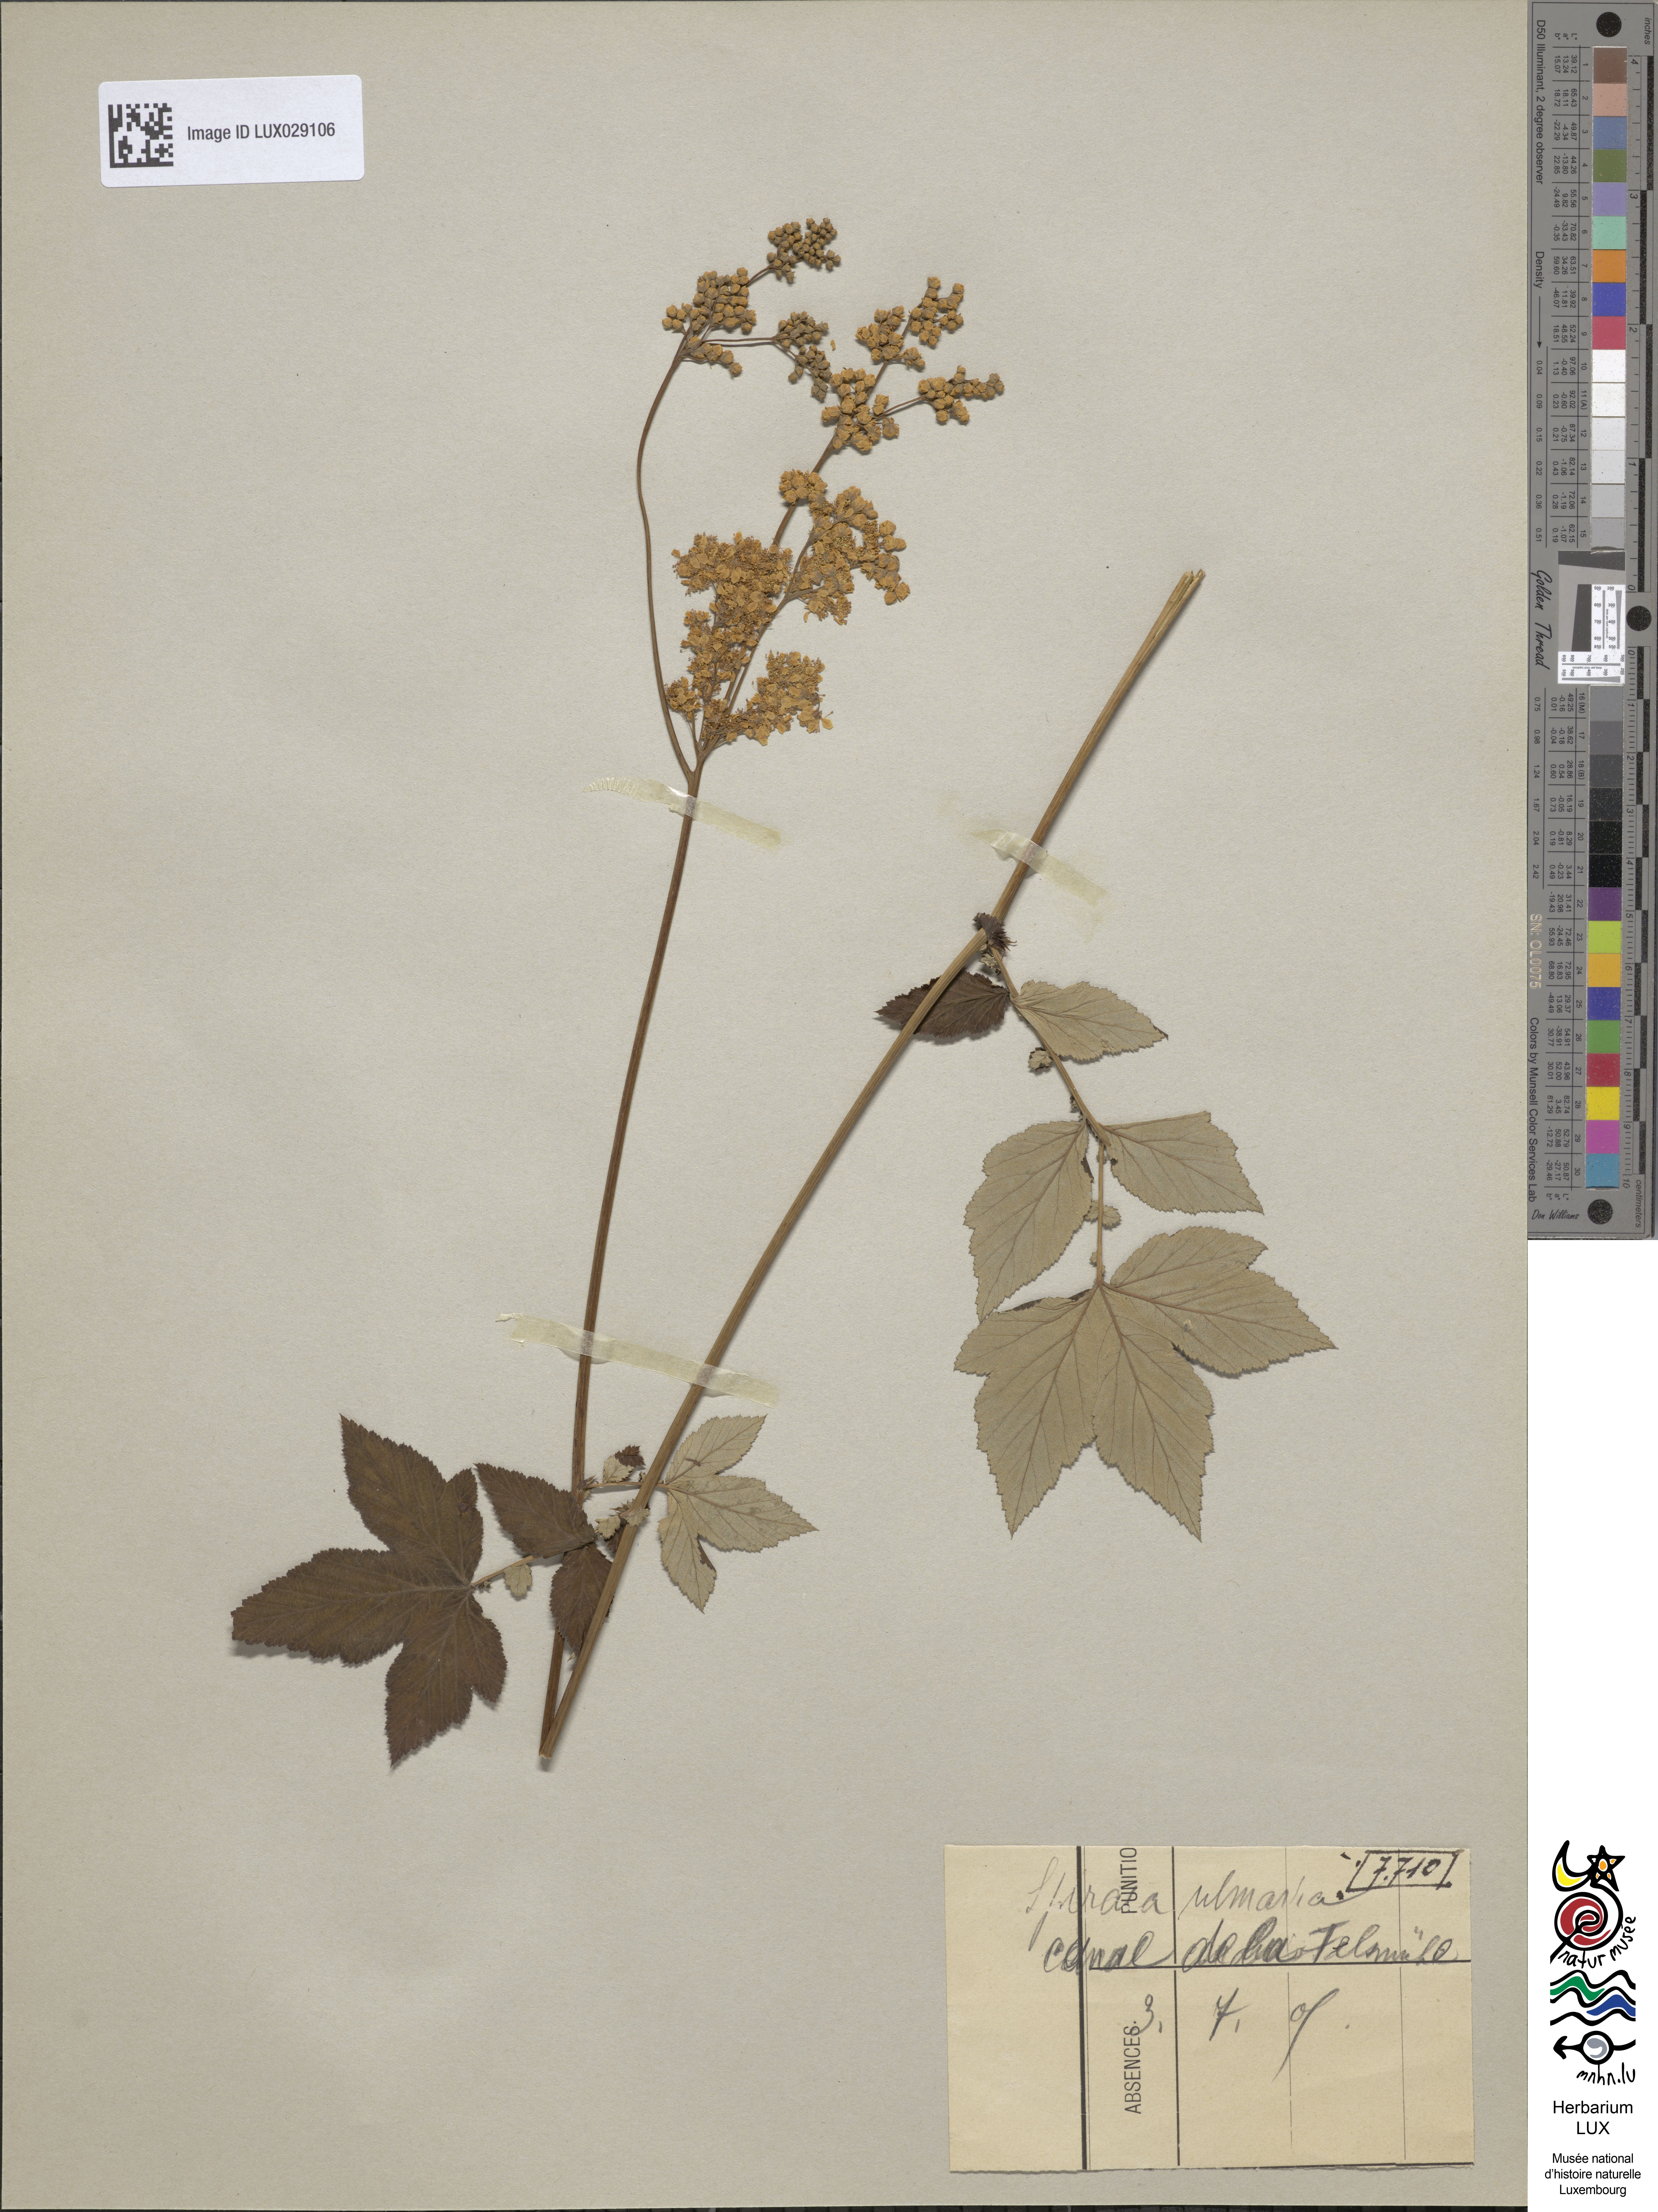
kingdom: Plantae
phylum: Tracheophyta
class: Magnoliopsida
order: Rosales
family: Rosaceae
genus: Filipendula
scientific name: Filipendula ulmaria
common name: Meadowsweet
